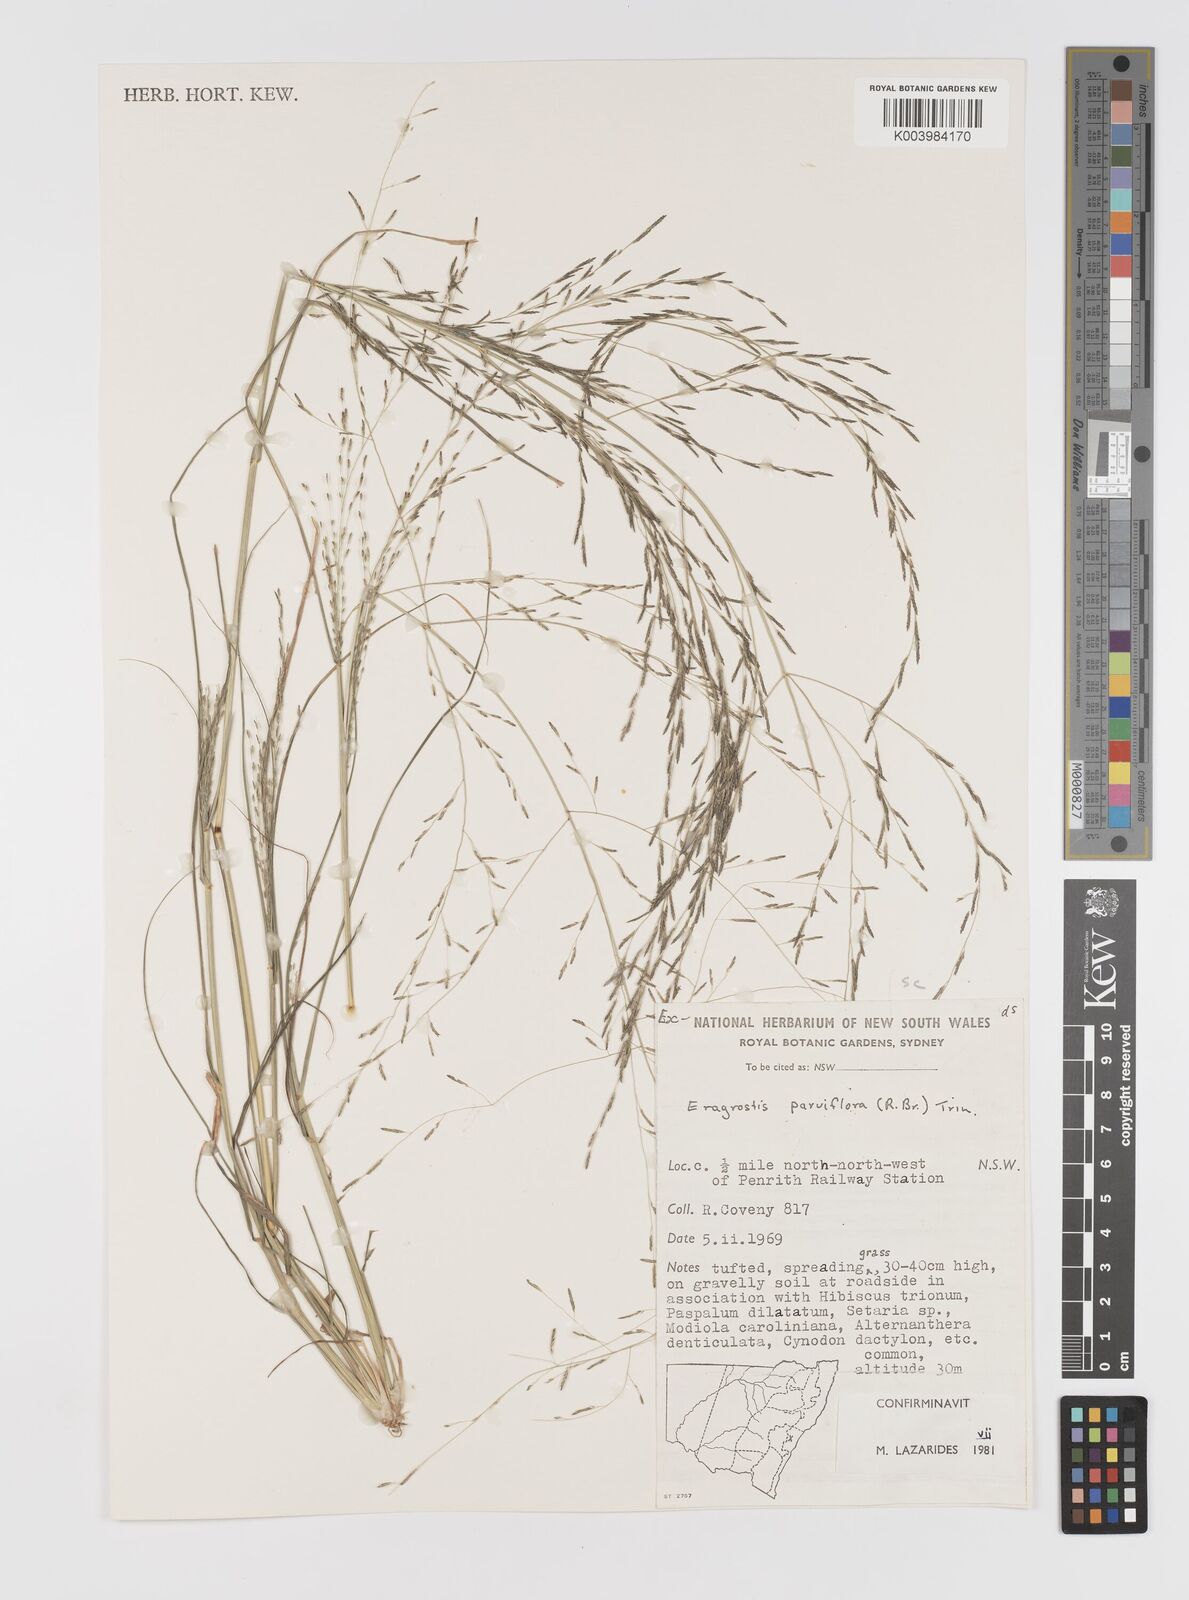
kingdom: Plantae
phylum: Tracheophyta
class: Liliopsida
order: Poales
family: Poaceae
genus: Eragrostis
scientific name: Eragrostis parviflora
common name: Weeping love-grass
